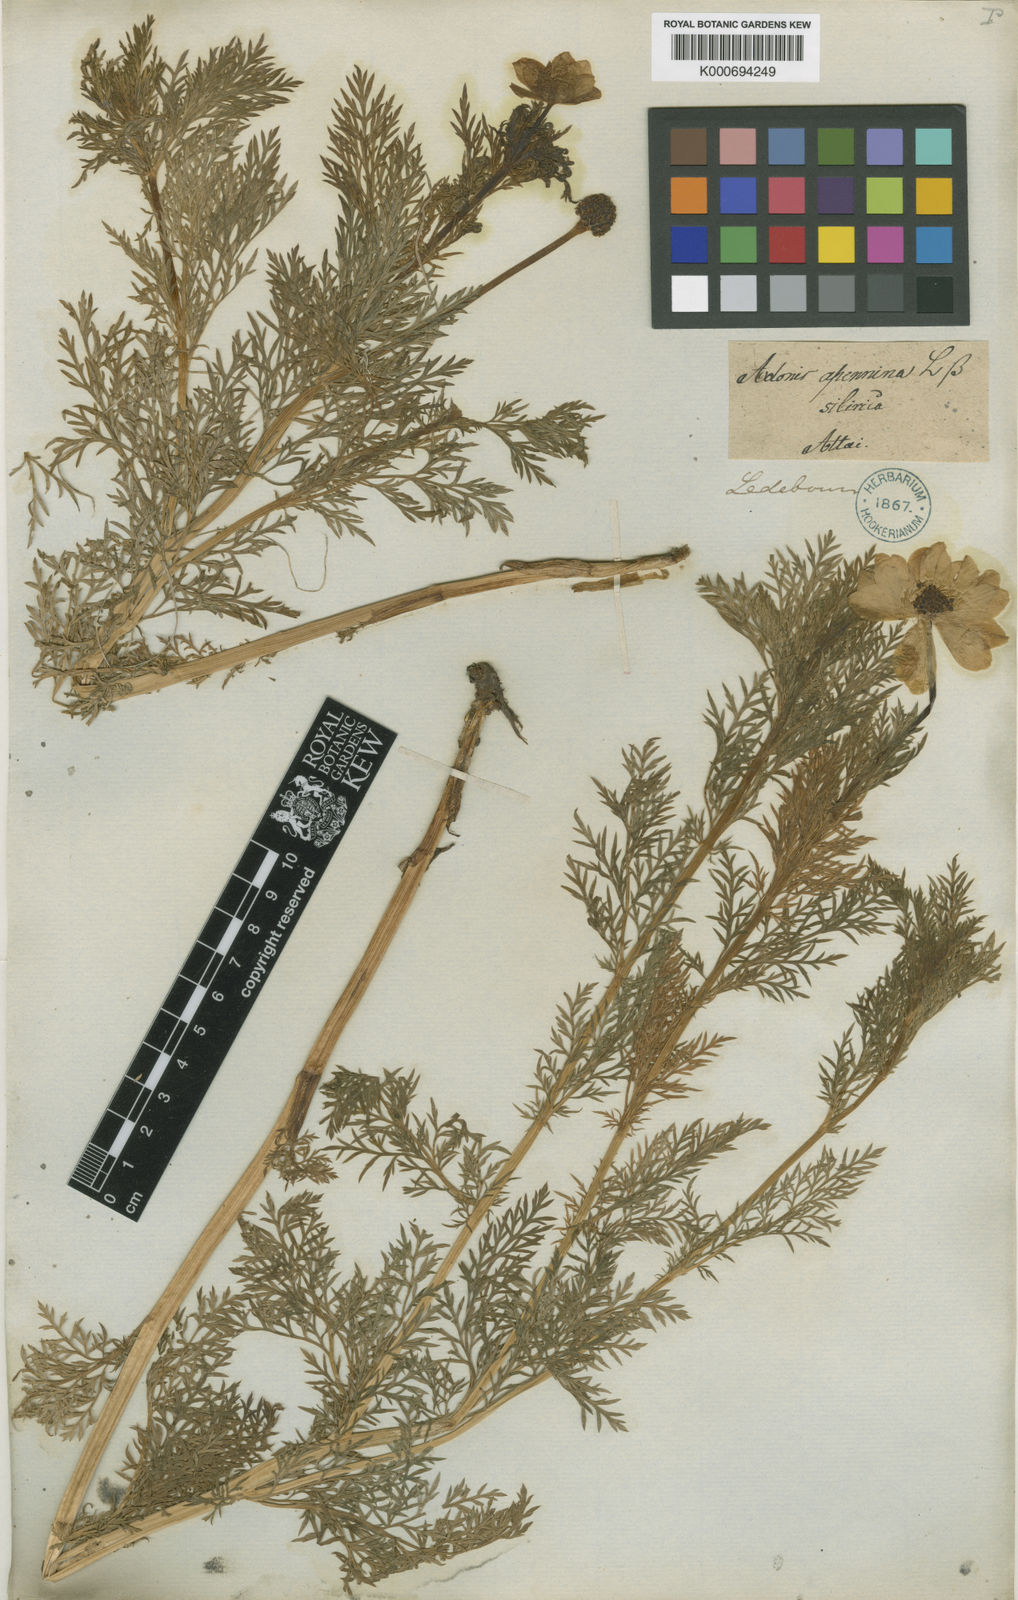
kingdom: Plantae
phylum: Tracheophyta
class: Magnoliopsida
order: Ranunculales
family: Ranunculaceae
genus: Adonis
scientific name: Adonis vernalis
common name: Yellow pheasants-eye
